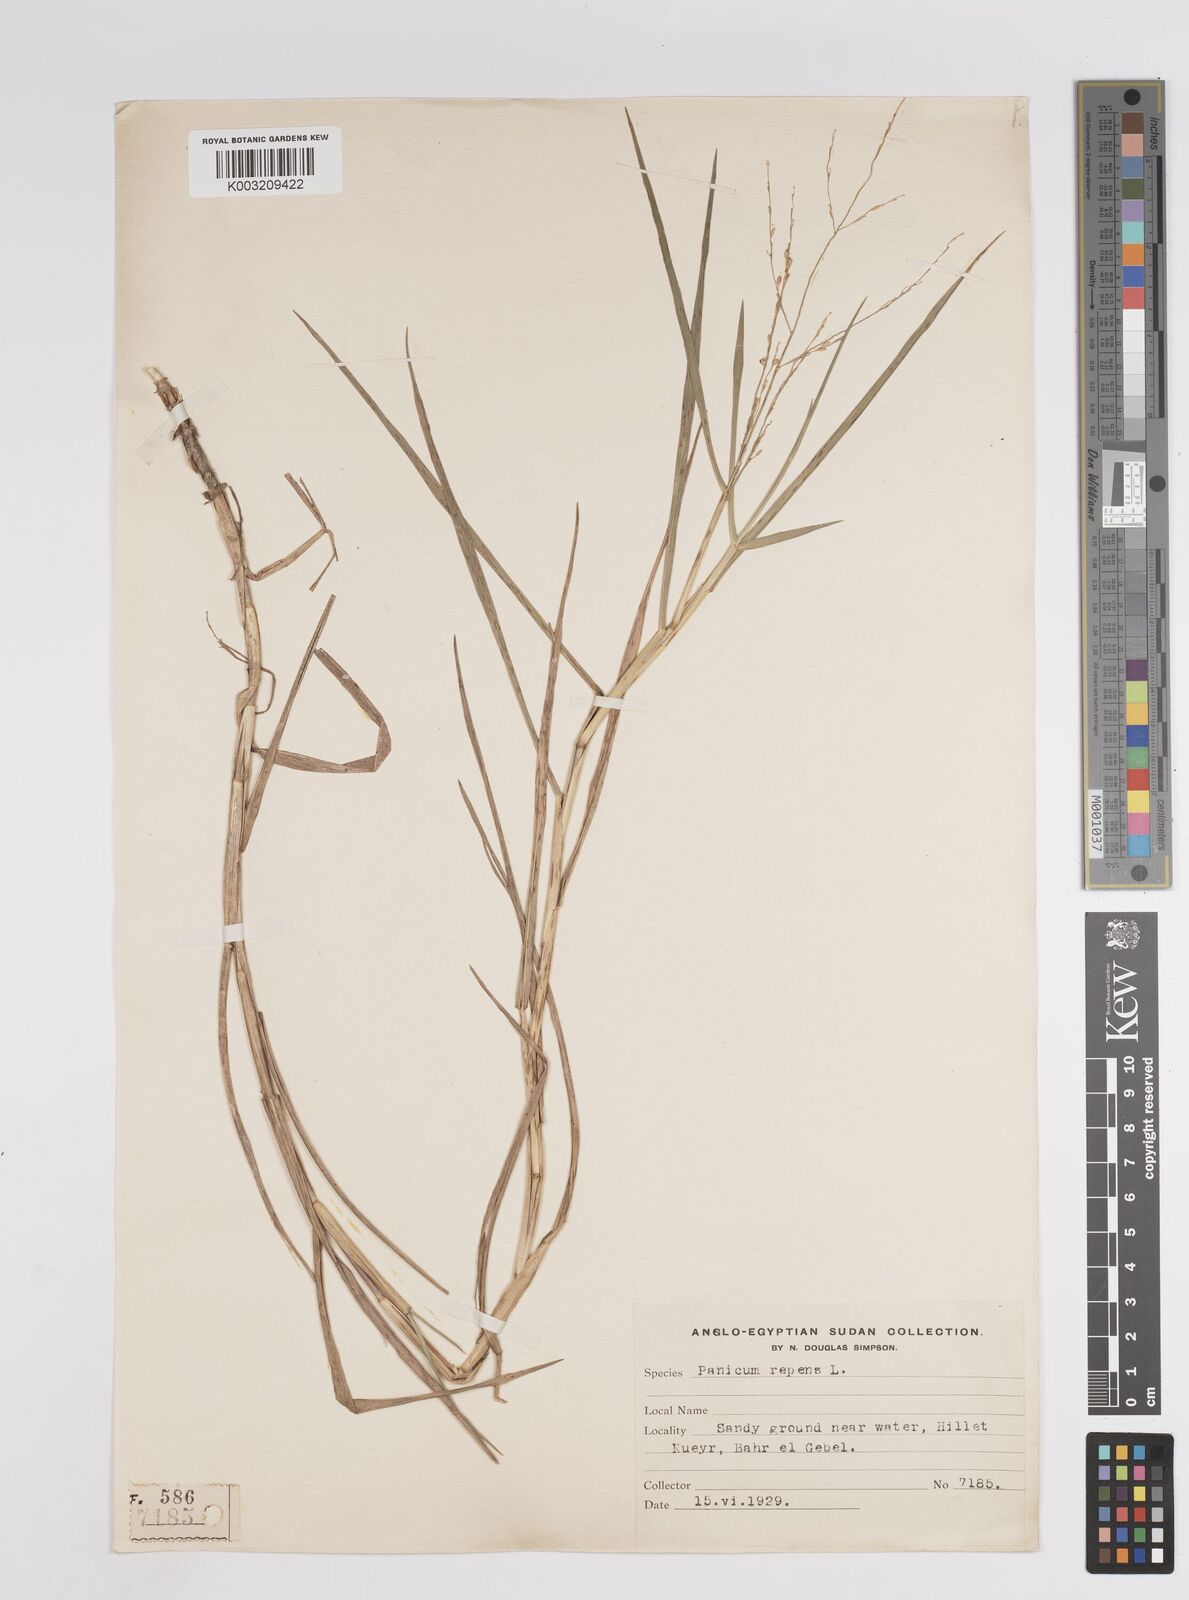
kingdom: Plantae
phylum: Tracheophyta
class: Liliopsida
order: Poales
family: Poaceae
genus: Panicum
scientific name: Panicum repens
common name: Torpedo grass
